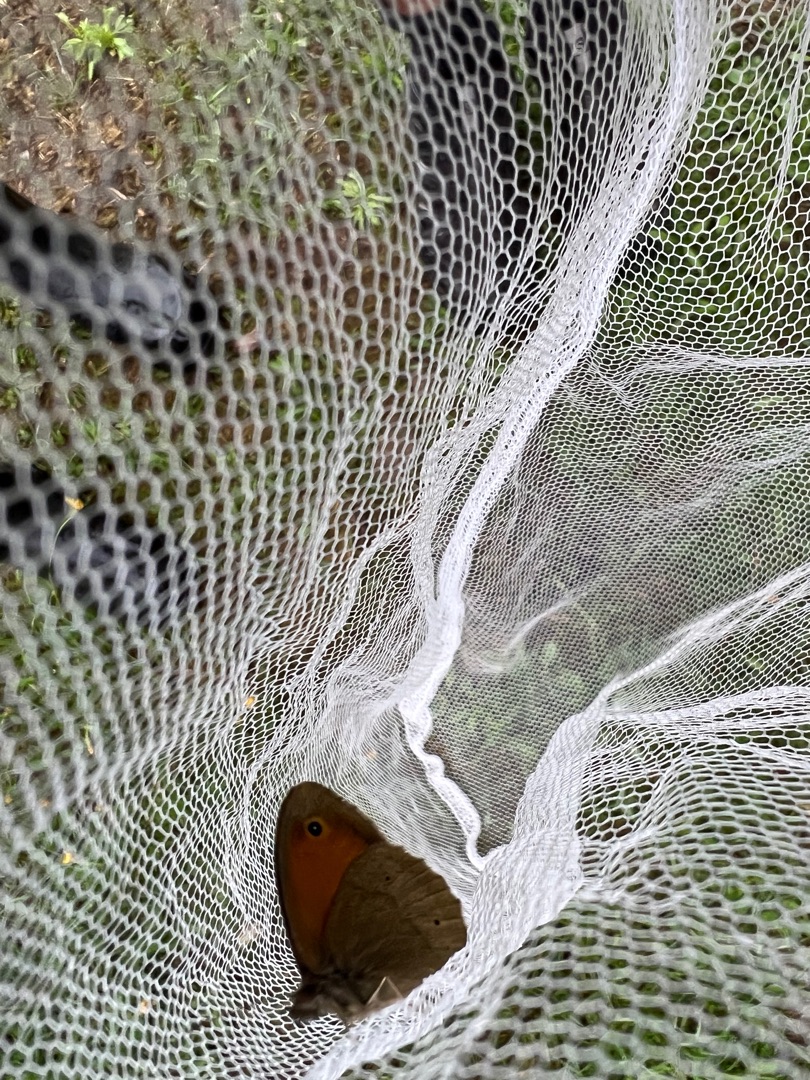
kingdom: Animalia
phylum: Arthropoda
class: Insecta
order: Lepidoptera
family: Nymphalidae
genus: Maniola
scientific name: Maniola jurtina
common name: Græsrandøje
